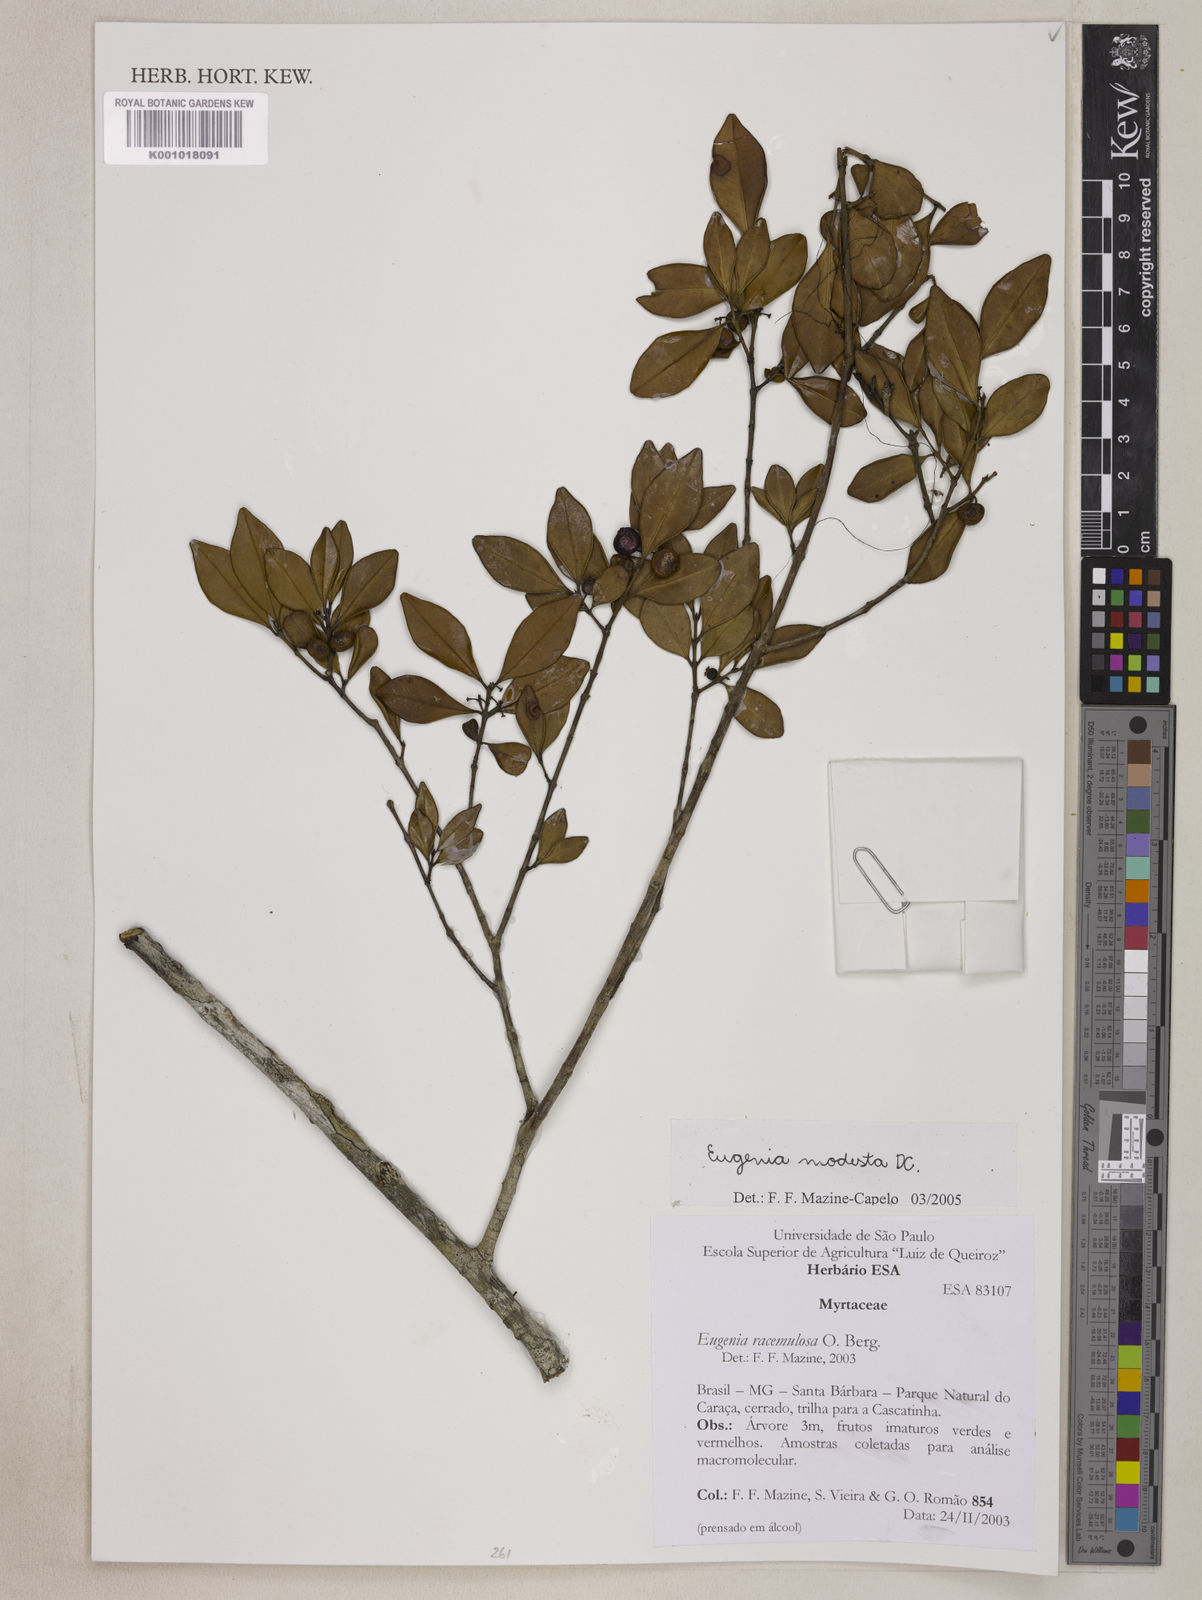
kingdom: Plantae
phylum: Tracheophyta
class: Magnoliopsida
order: Myrtales
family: Myrtaceae
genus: Eugenia
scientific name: Eugenia modesta
